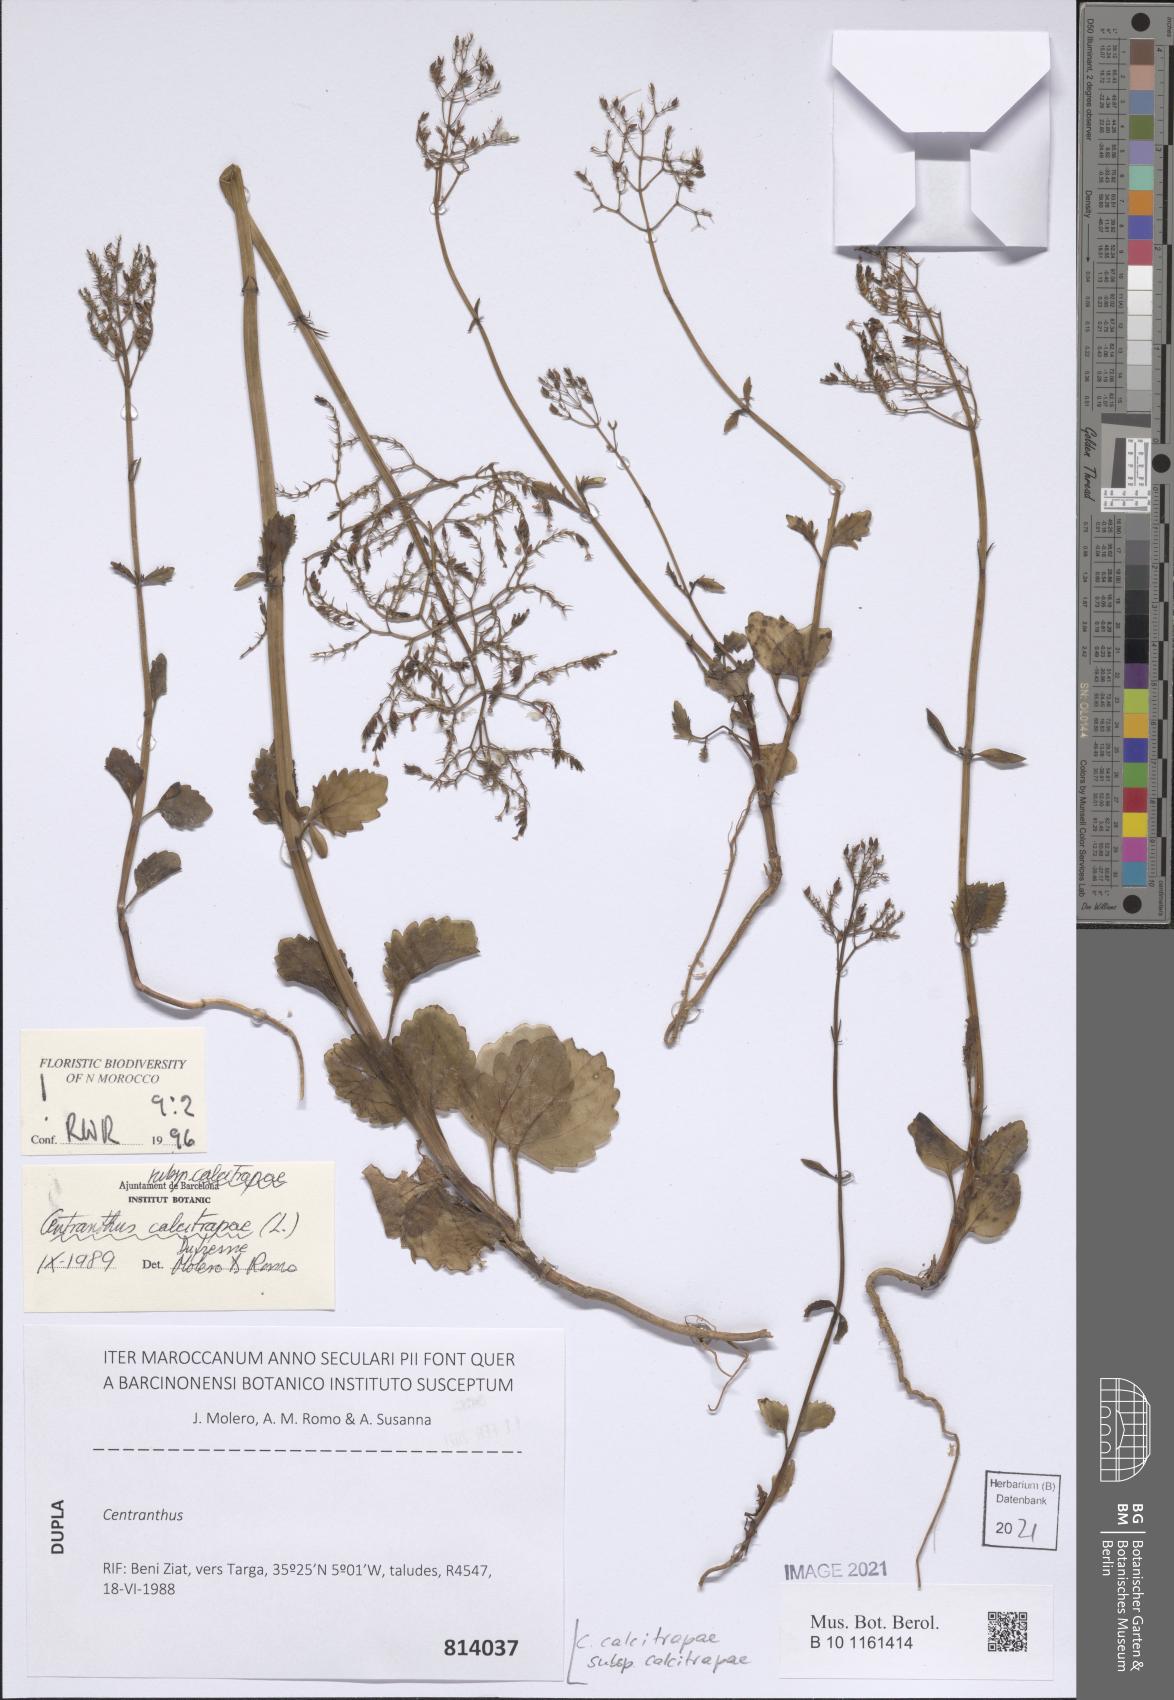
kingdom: Plantae
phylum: Tracheophyta
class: Magnoliopsida
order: Dipsacales
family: Caprifoliaceae
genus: Centranthus
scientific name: Centranthus calcitrapae
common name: Annual valerian
